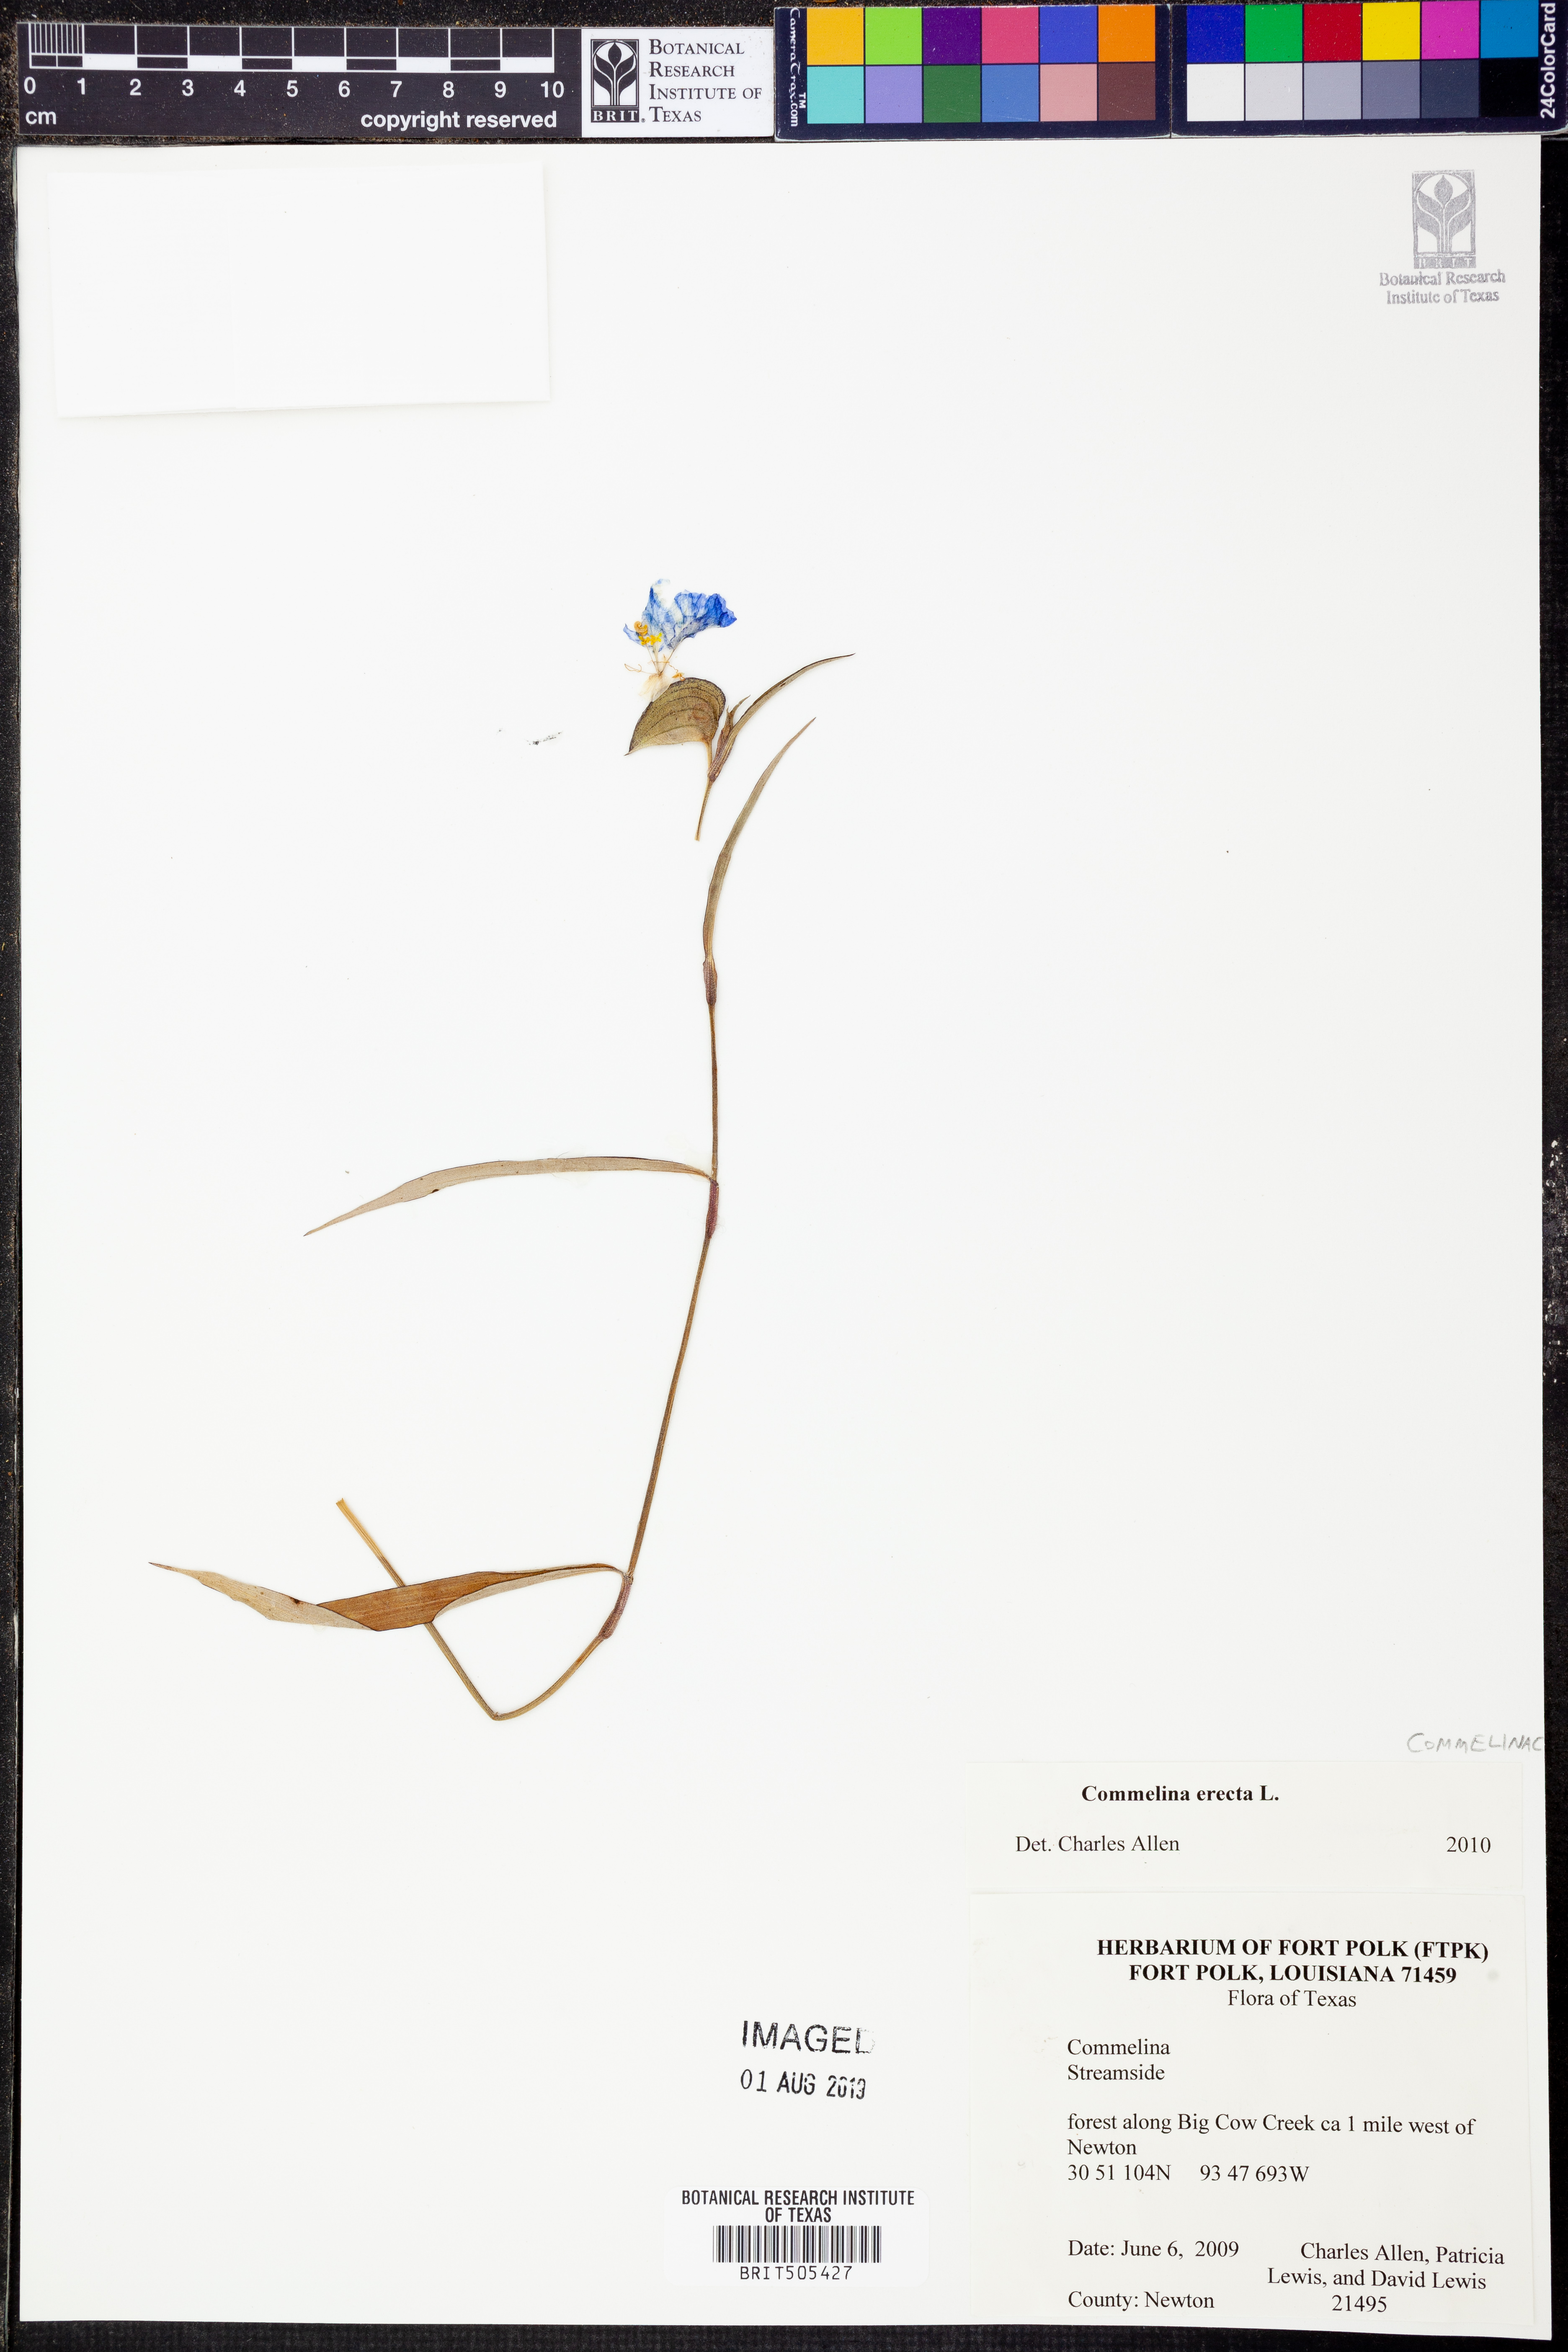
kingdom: Plantae
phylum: Tracheophyta
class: Liliopsida
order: Commelinales
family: Commelinaceae
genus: Commelina
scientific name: Commelina erecta
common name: Blousel blommetjie
